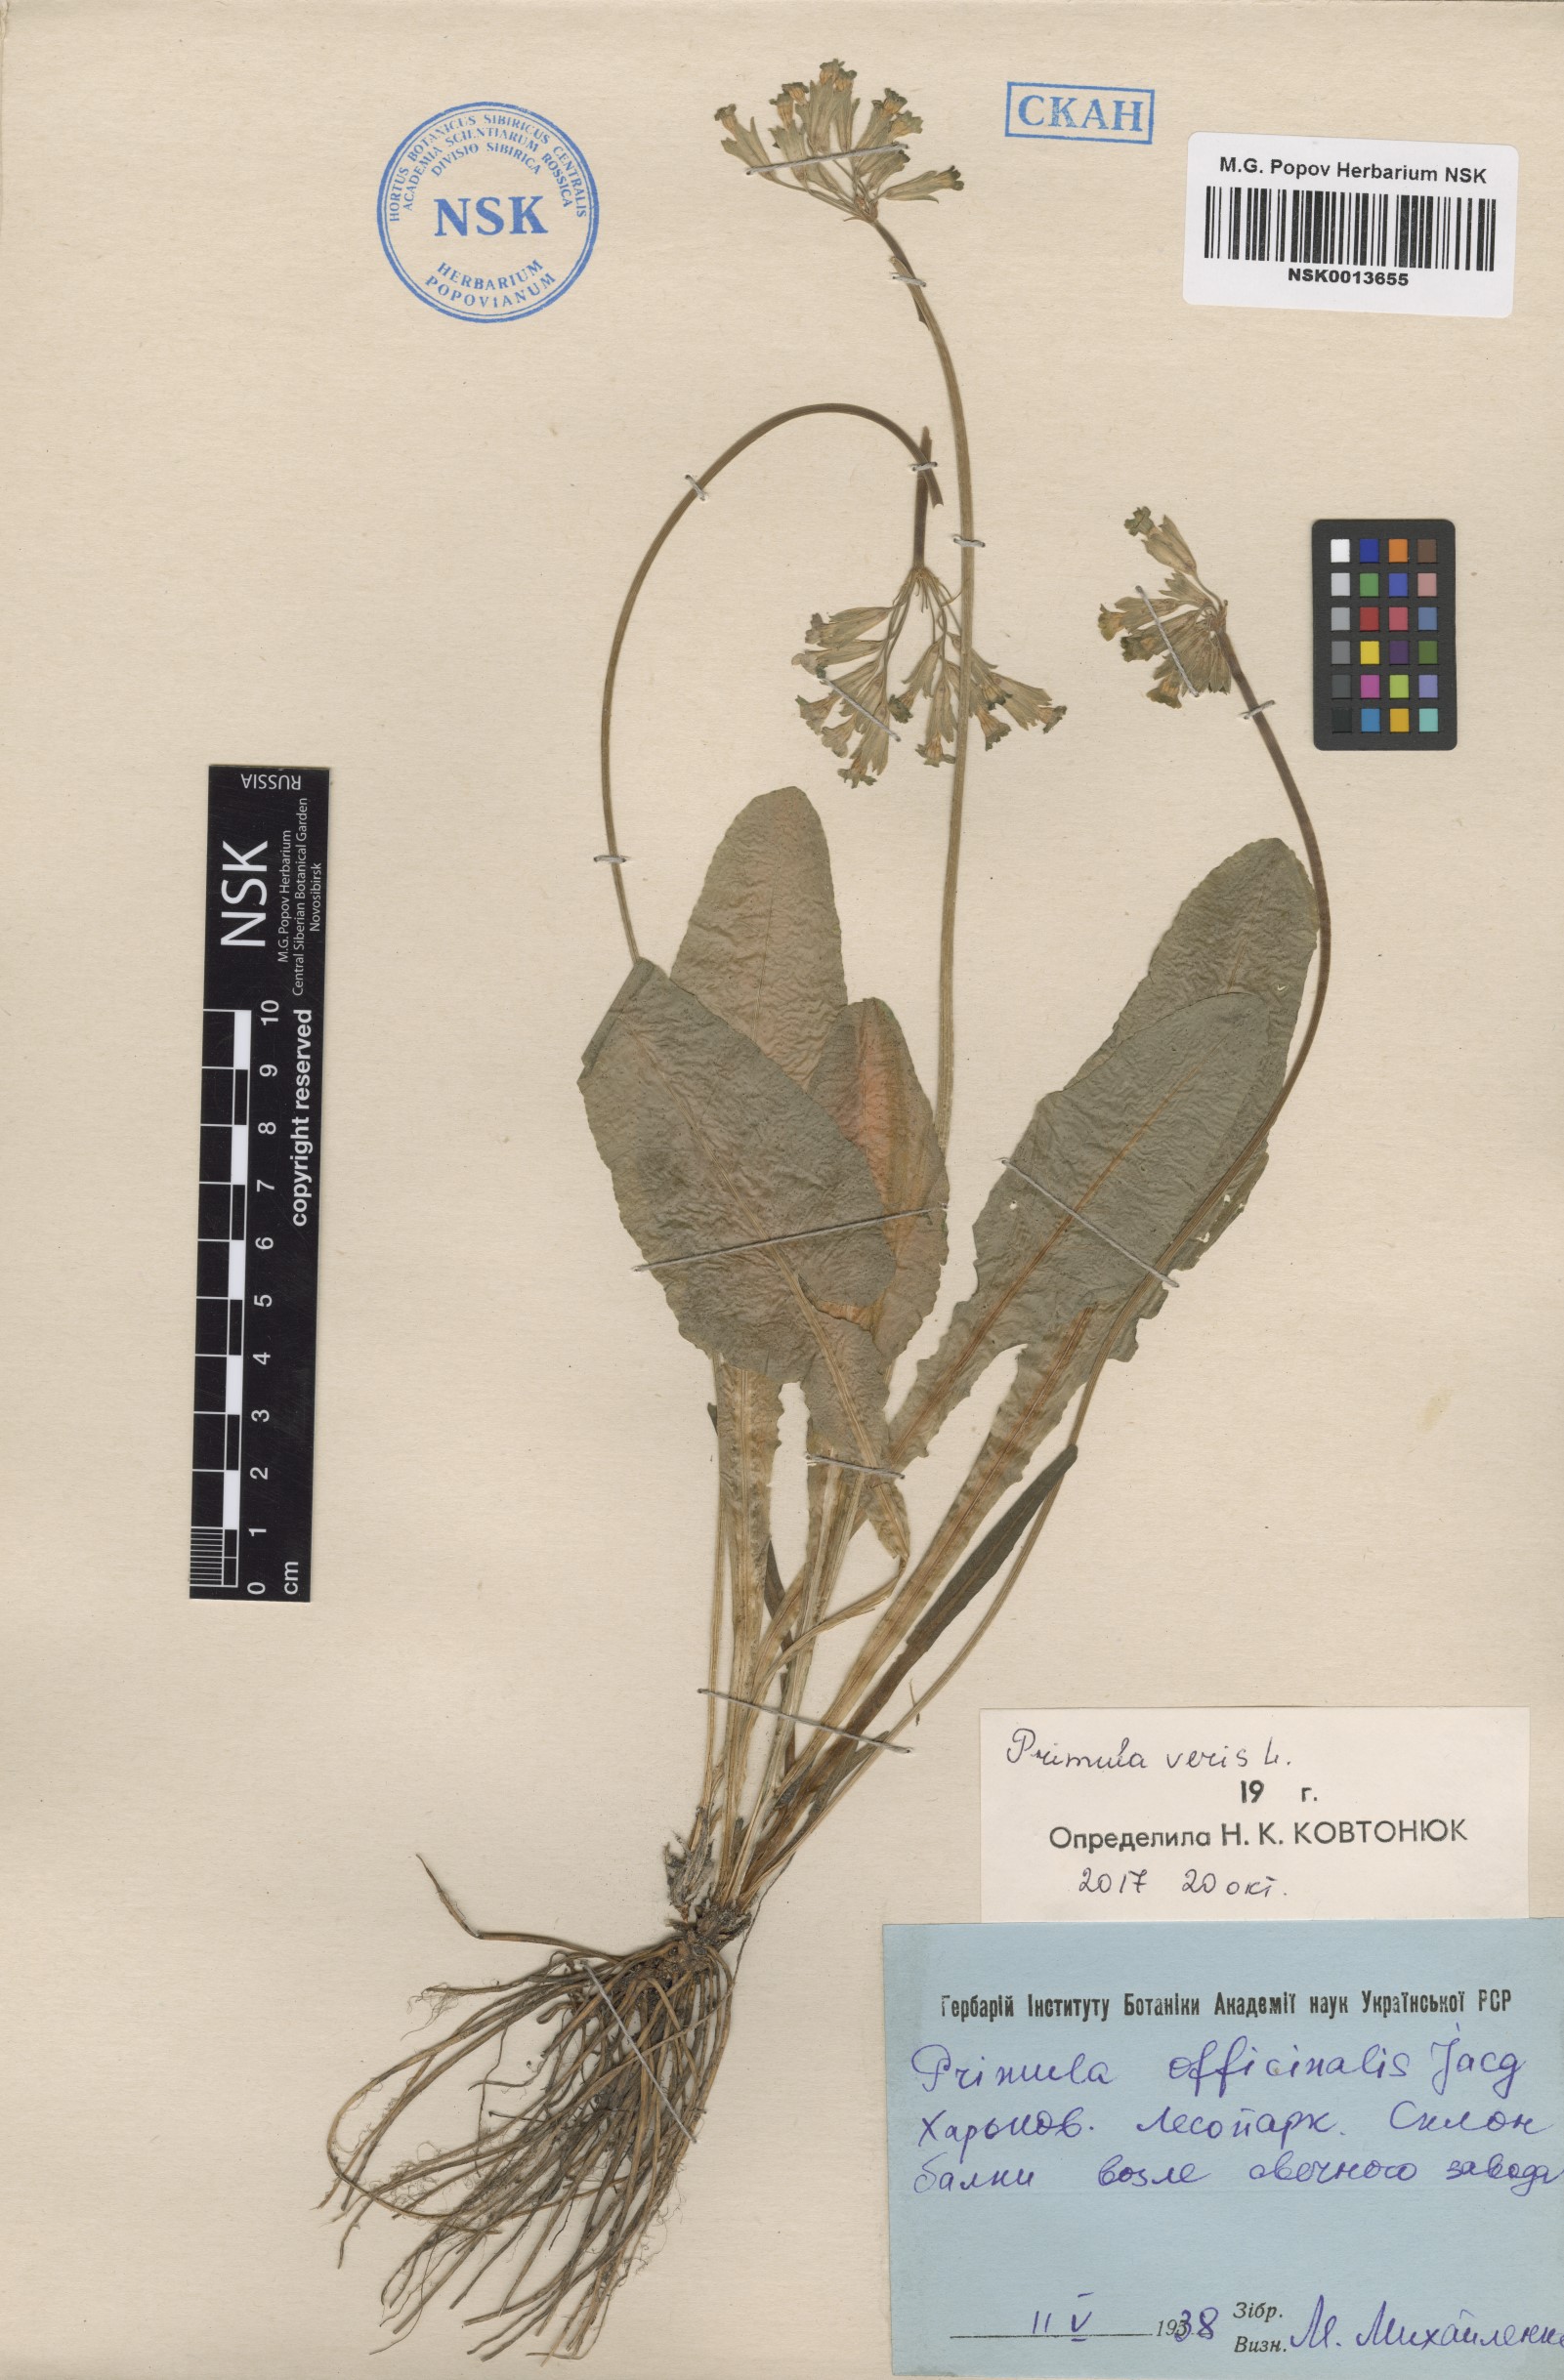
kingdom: Plantae
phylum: Tracheophyta
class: Magnoliopsida
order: Ericales
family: Primulaceae
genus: Primula
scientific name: Primula veris
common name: Cowslip
